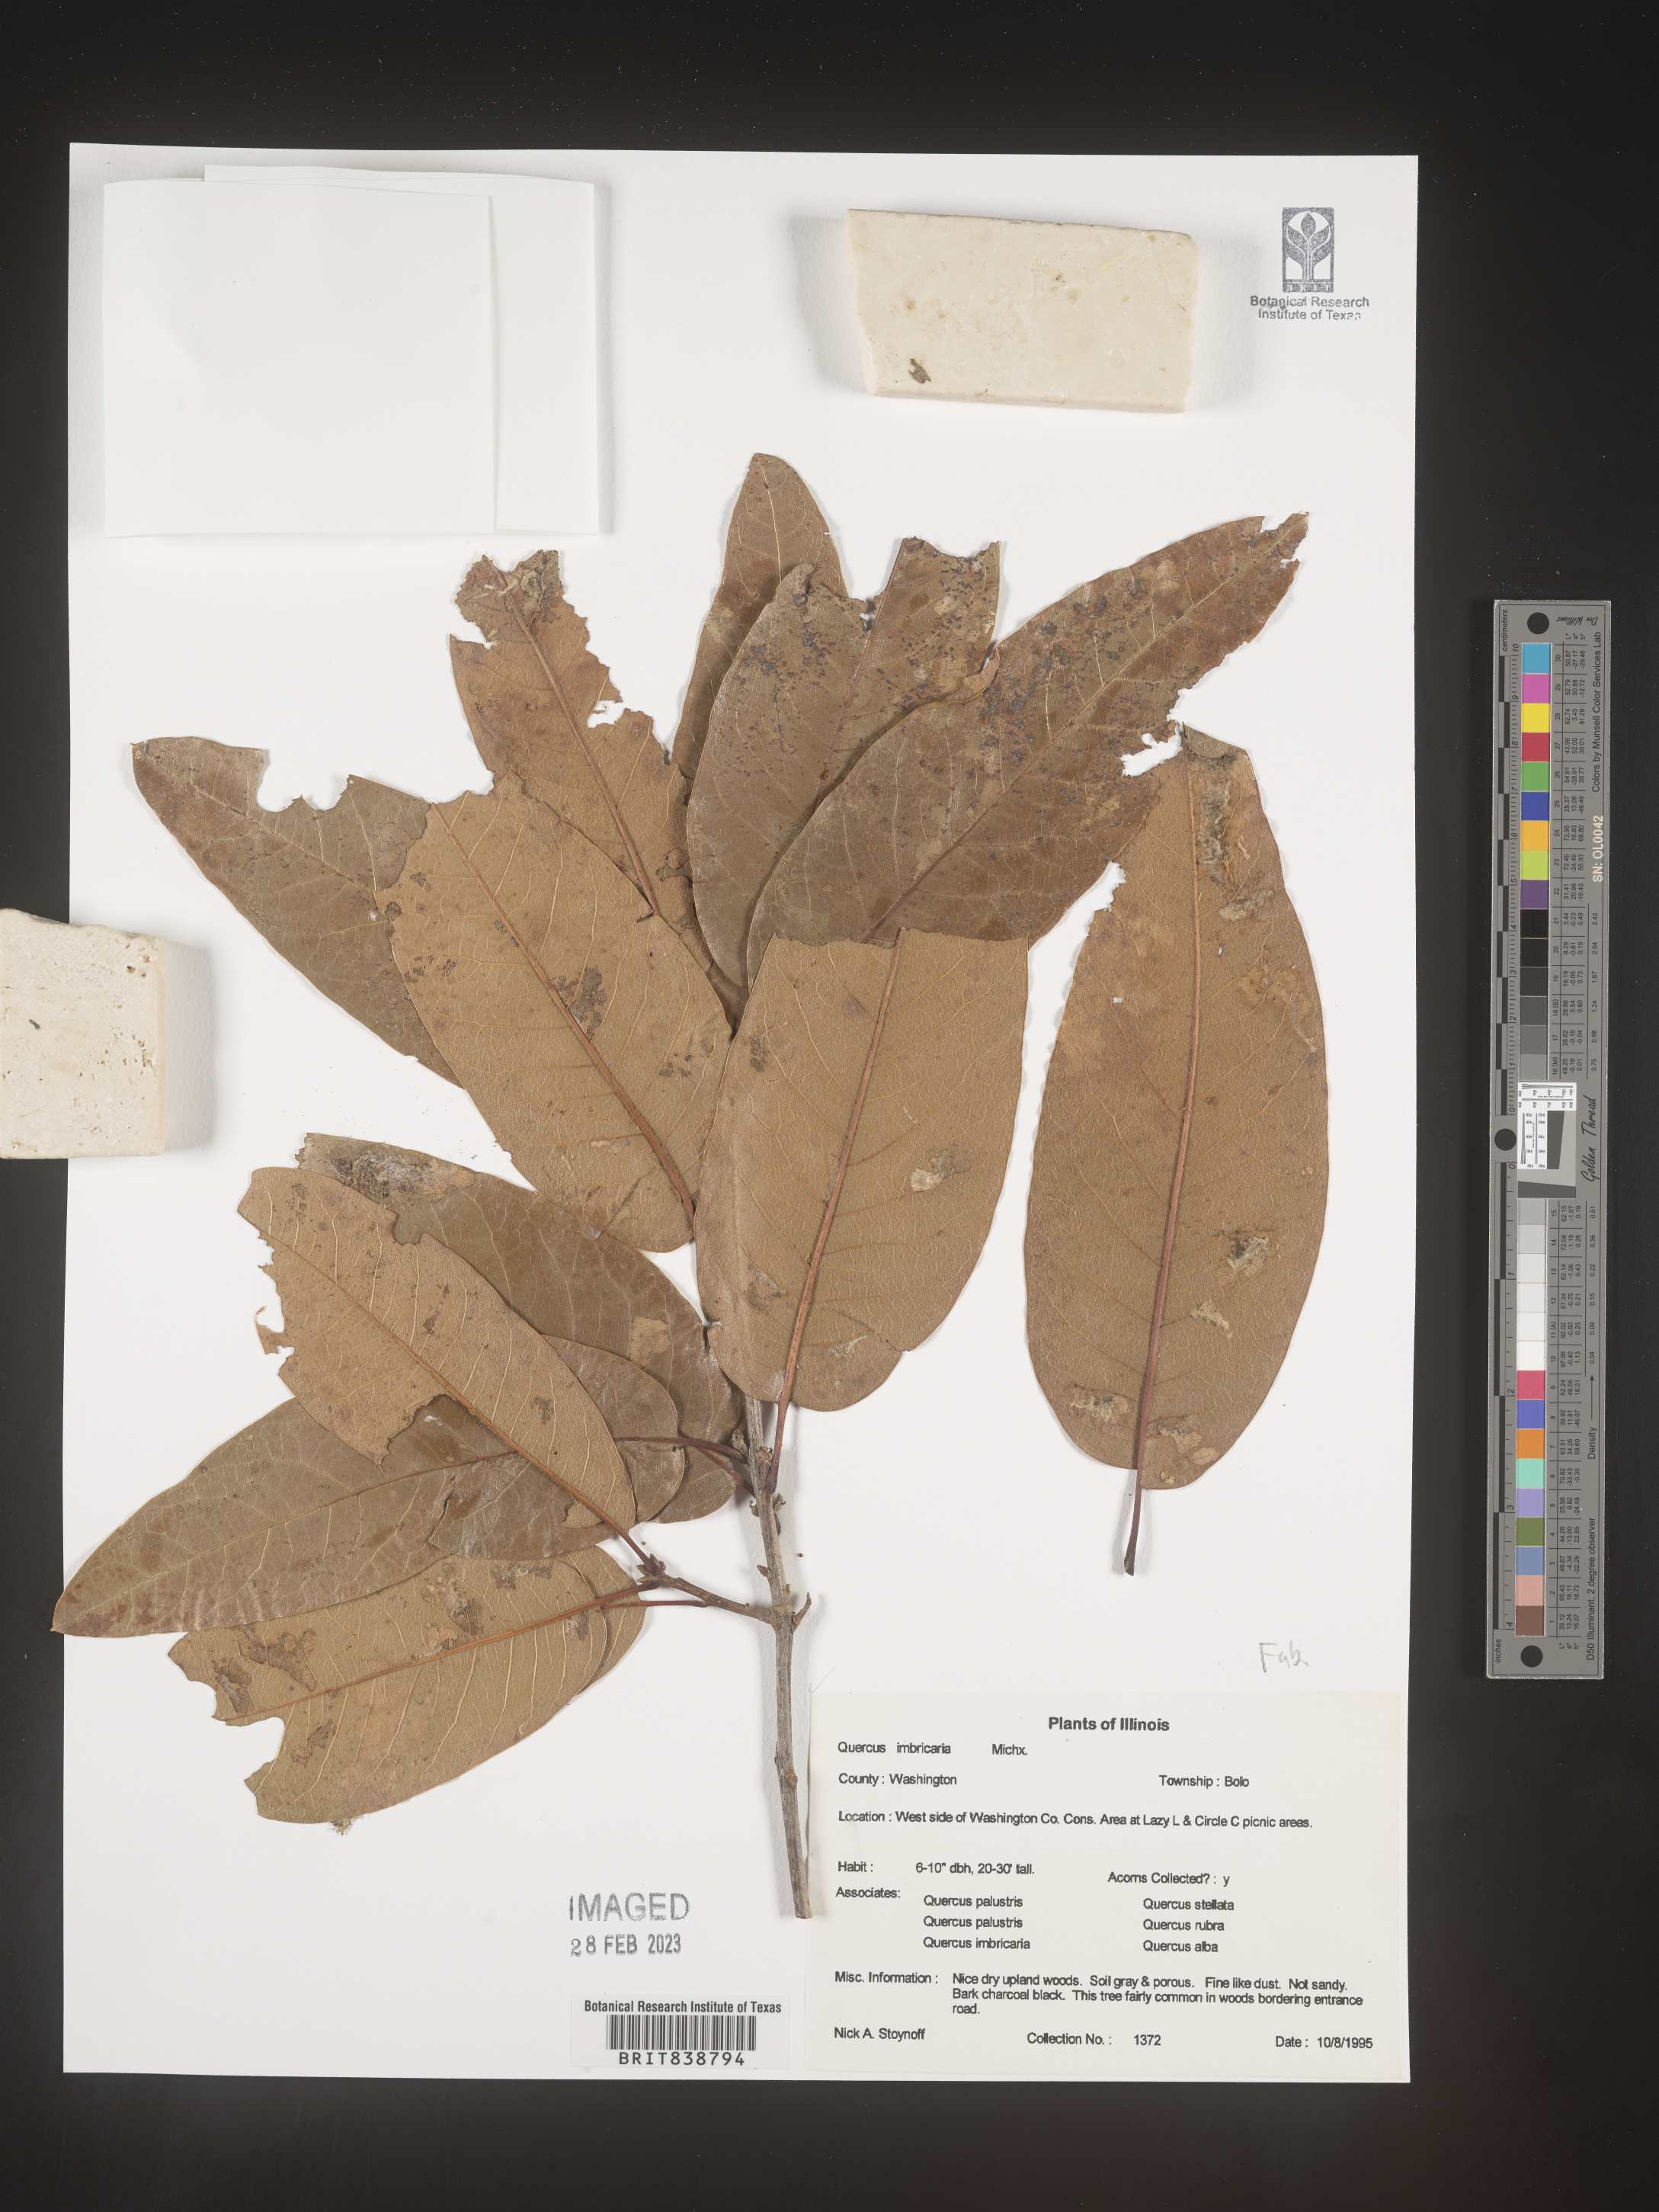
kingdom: Plantae
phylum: Tracheophyta
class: Magnoliopsida
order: Fagales
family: Fagaceae
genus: Quercus
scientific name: Quercus imbricaria
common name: Shingle oak
